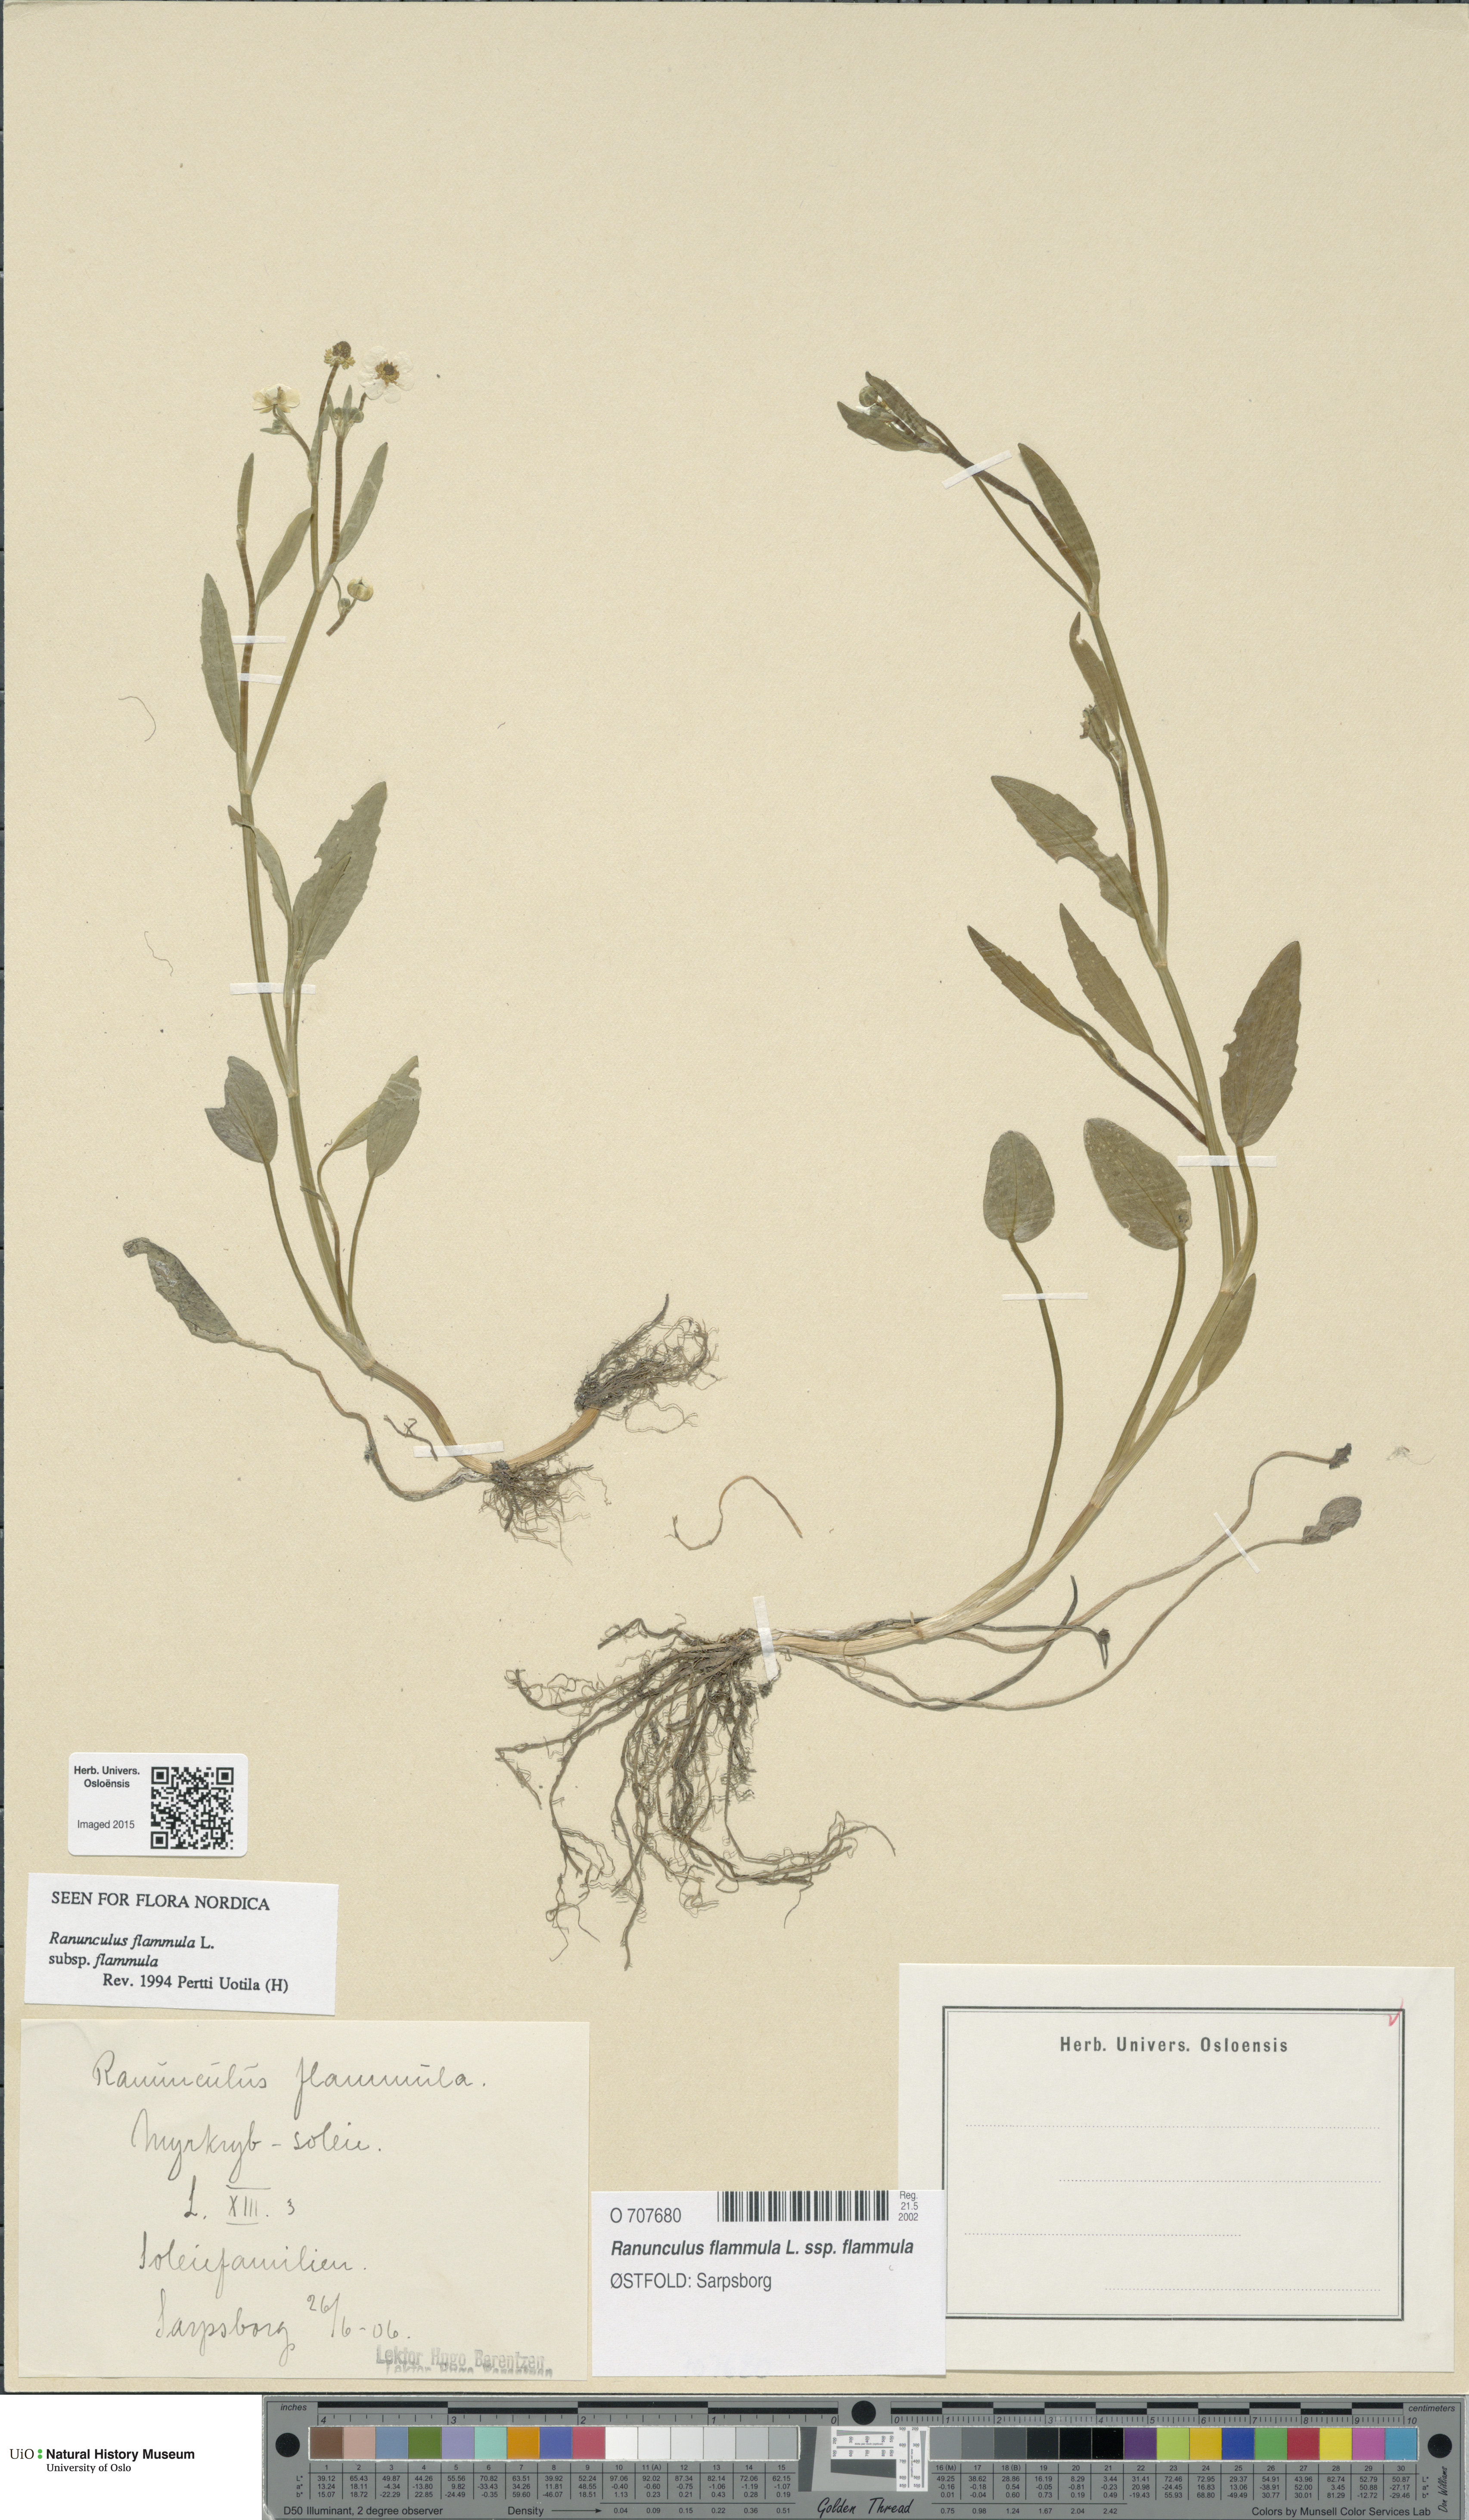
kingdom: Plantae
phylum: Tracheophyta
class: Magnoliopsida
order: Ranunculales
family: Ranunculaceae
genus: Ranunculus
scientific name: Ranunculus flammula
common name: Lesser spearwort
